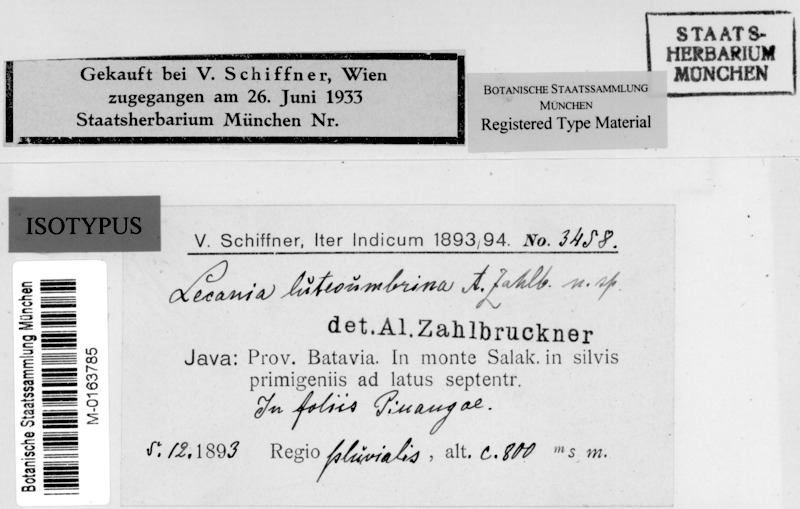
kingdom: Fungi
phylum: Ascomycota
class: Lecanoromycetes
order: Lecanorales
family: Ramalinaceae
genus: Lecania
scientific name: Lecania
